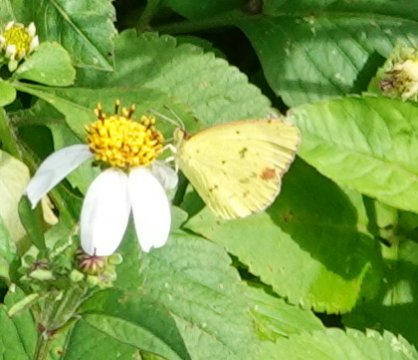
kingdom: Animalia
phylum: Arthropoda
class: Insecta
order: Lepidoptera
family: Pieridae
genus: Pyrisitia
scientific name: Pyrisitia lisa
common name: Little Yellow
